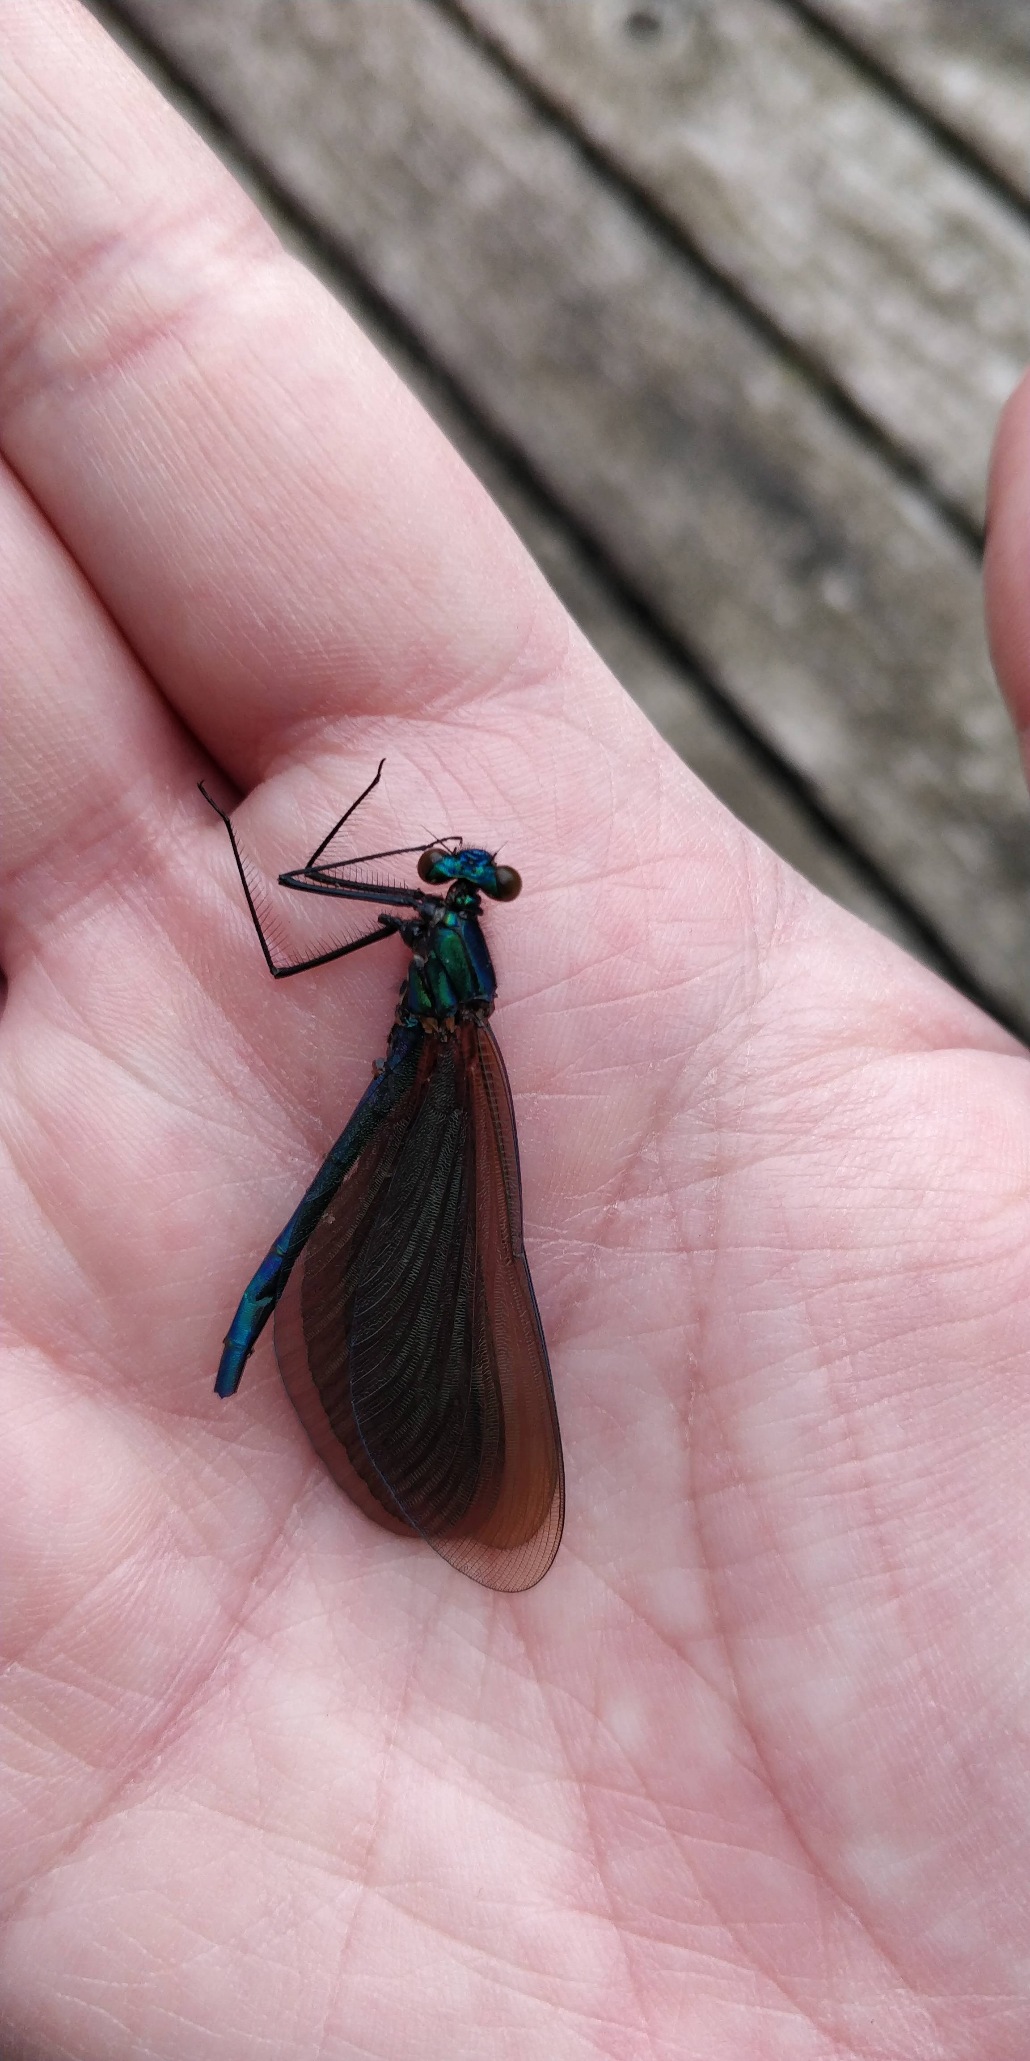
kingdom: Animalia
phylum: Arthropoda
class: Insecta
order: Odonata
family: Calopterygidae
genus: Calopteryx
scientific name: Calopteryx virgo
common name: Blåvinget pragtvandnymfe
